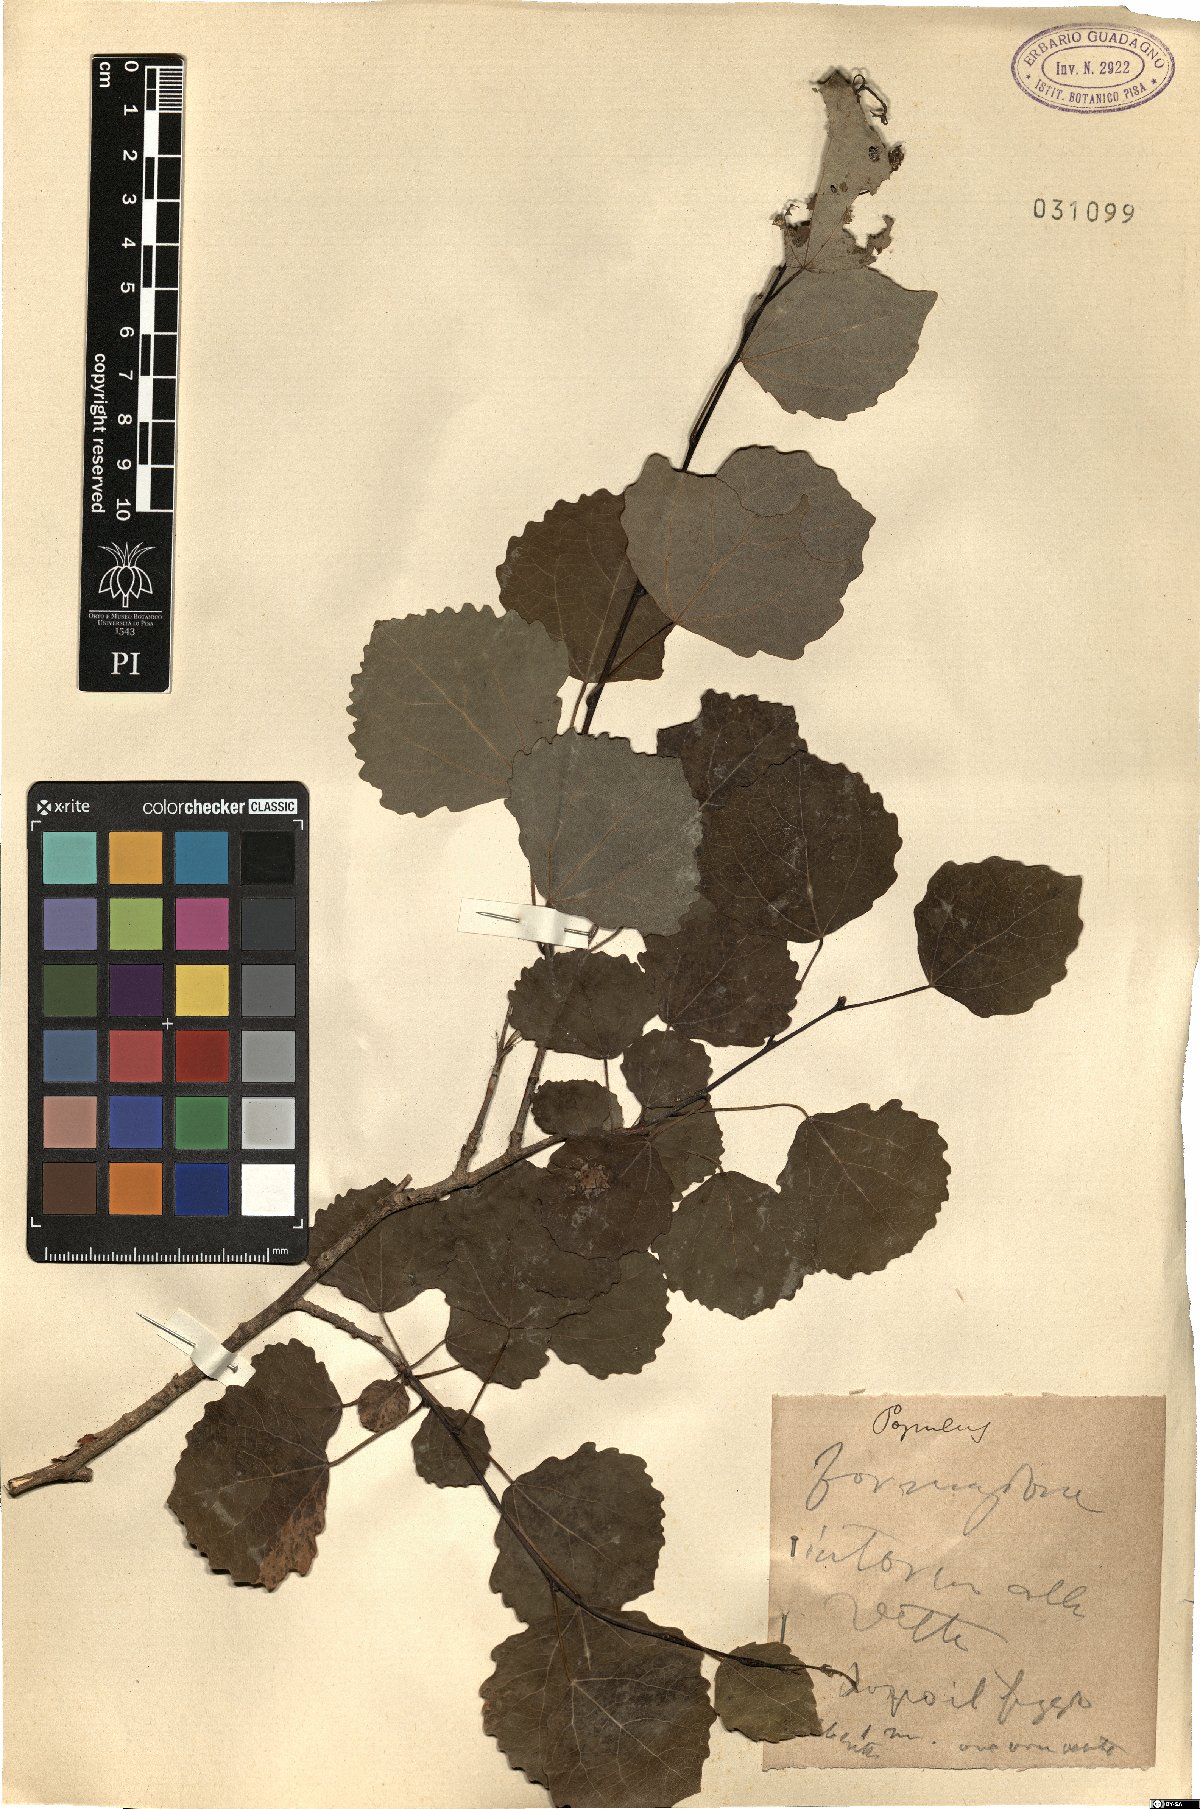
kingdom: Plantae
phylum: Tracheophyta
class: Magnoliopsida
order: Malpighiales
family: Salicaceae
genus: Populus
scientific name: Populus
